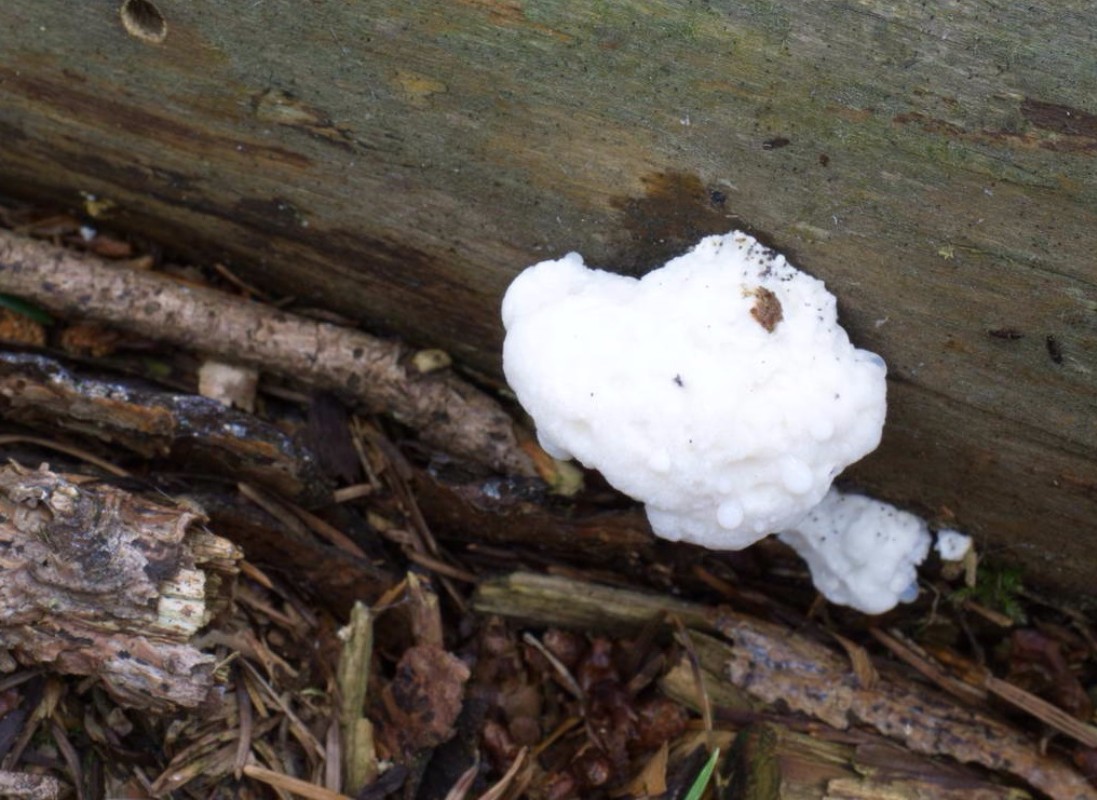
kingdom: Fungi
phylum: Basidiomycota
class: Agaricomycetes
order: Polyporales
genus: Amaropostia
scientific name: Amaropostia stiptica
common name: bitter kødporesvamp
